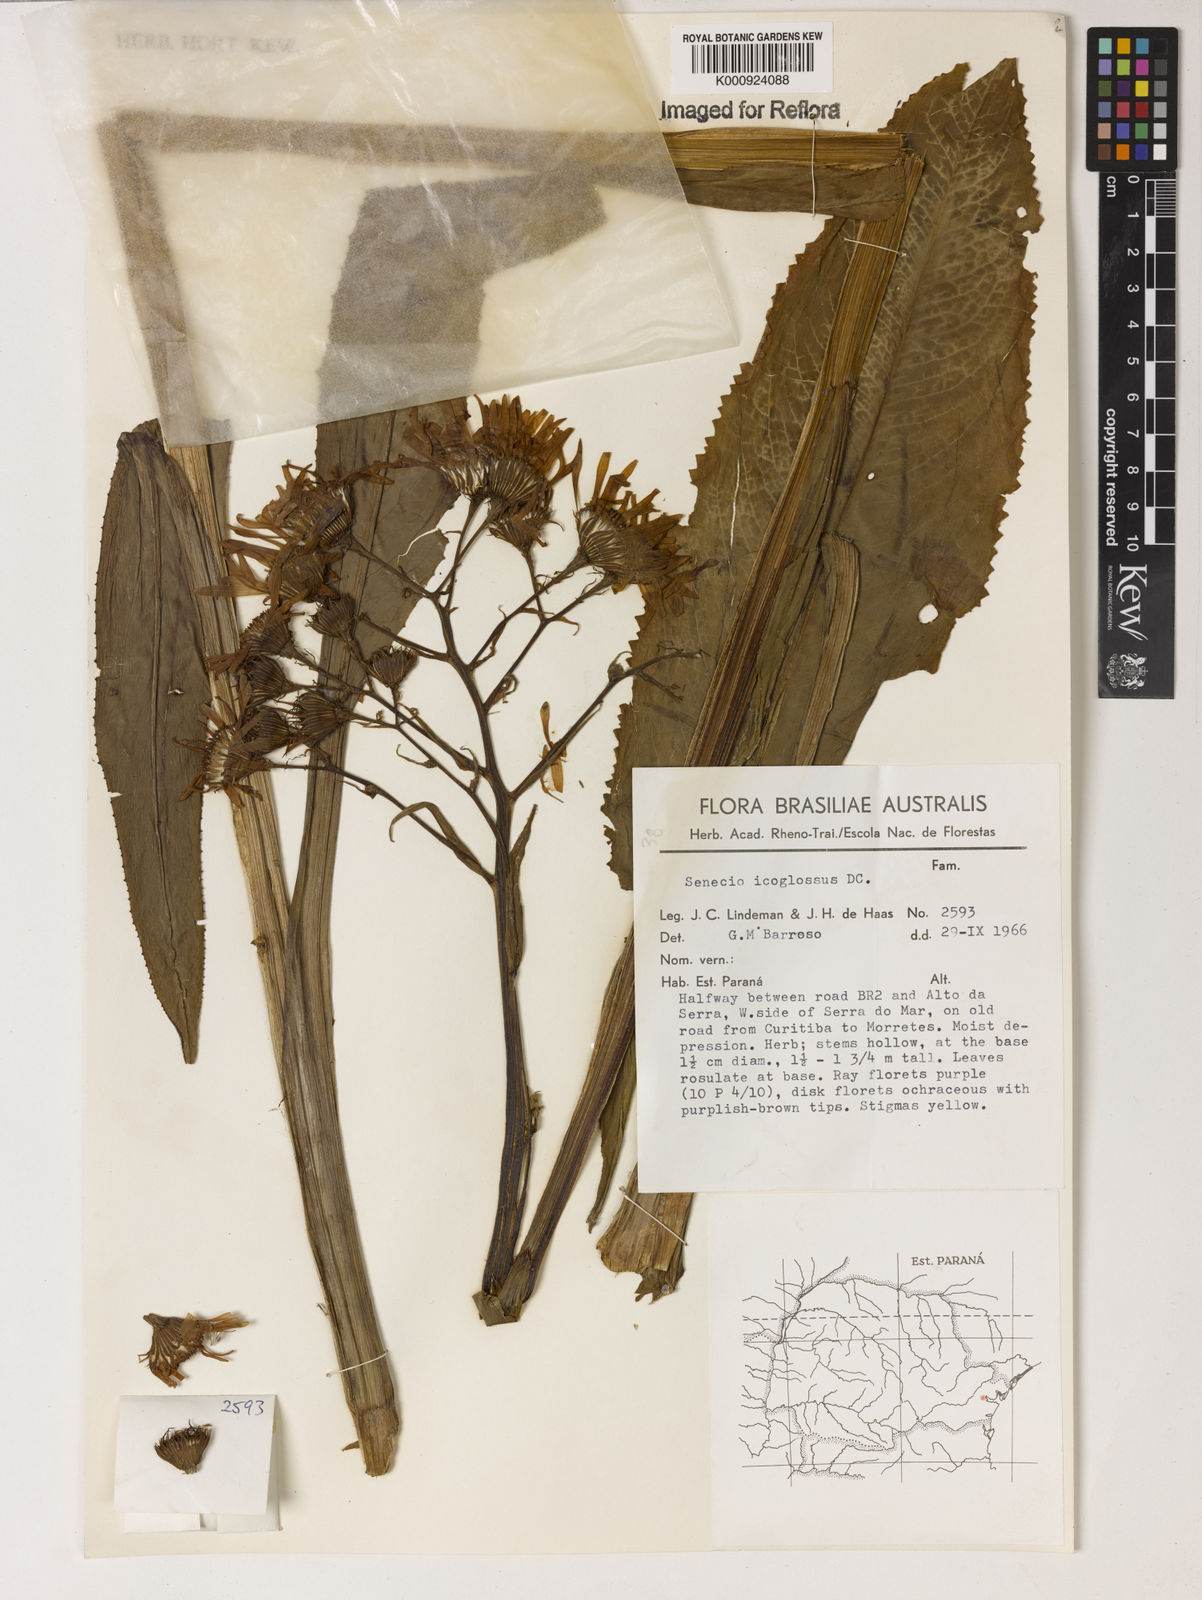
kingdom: Plantae
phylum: Tracheophyta
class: Magnoliopsida
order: Asterales
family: Asteraceae
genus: Senecio
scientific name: Senecio icoglossus
